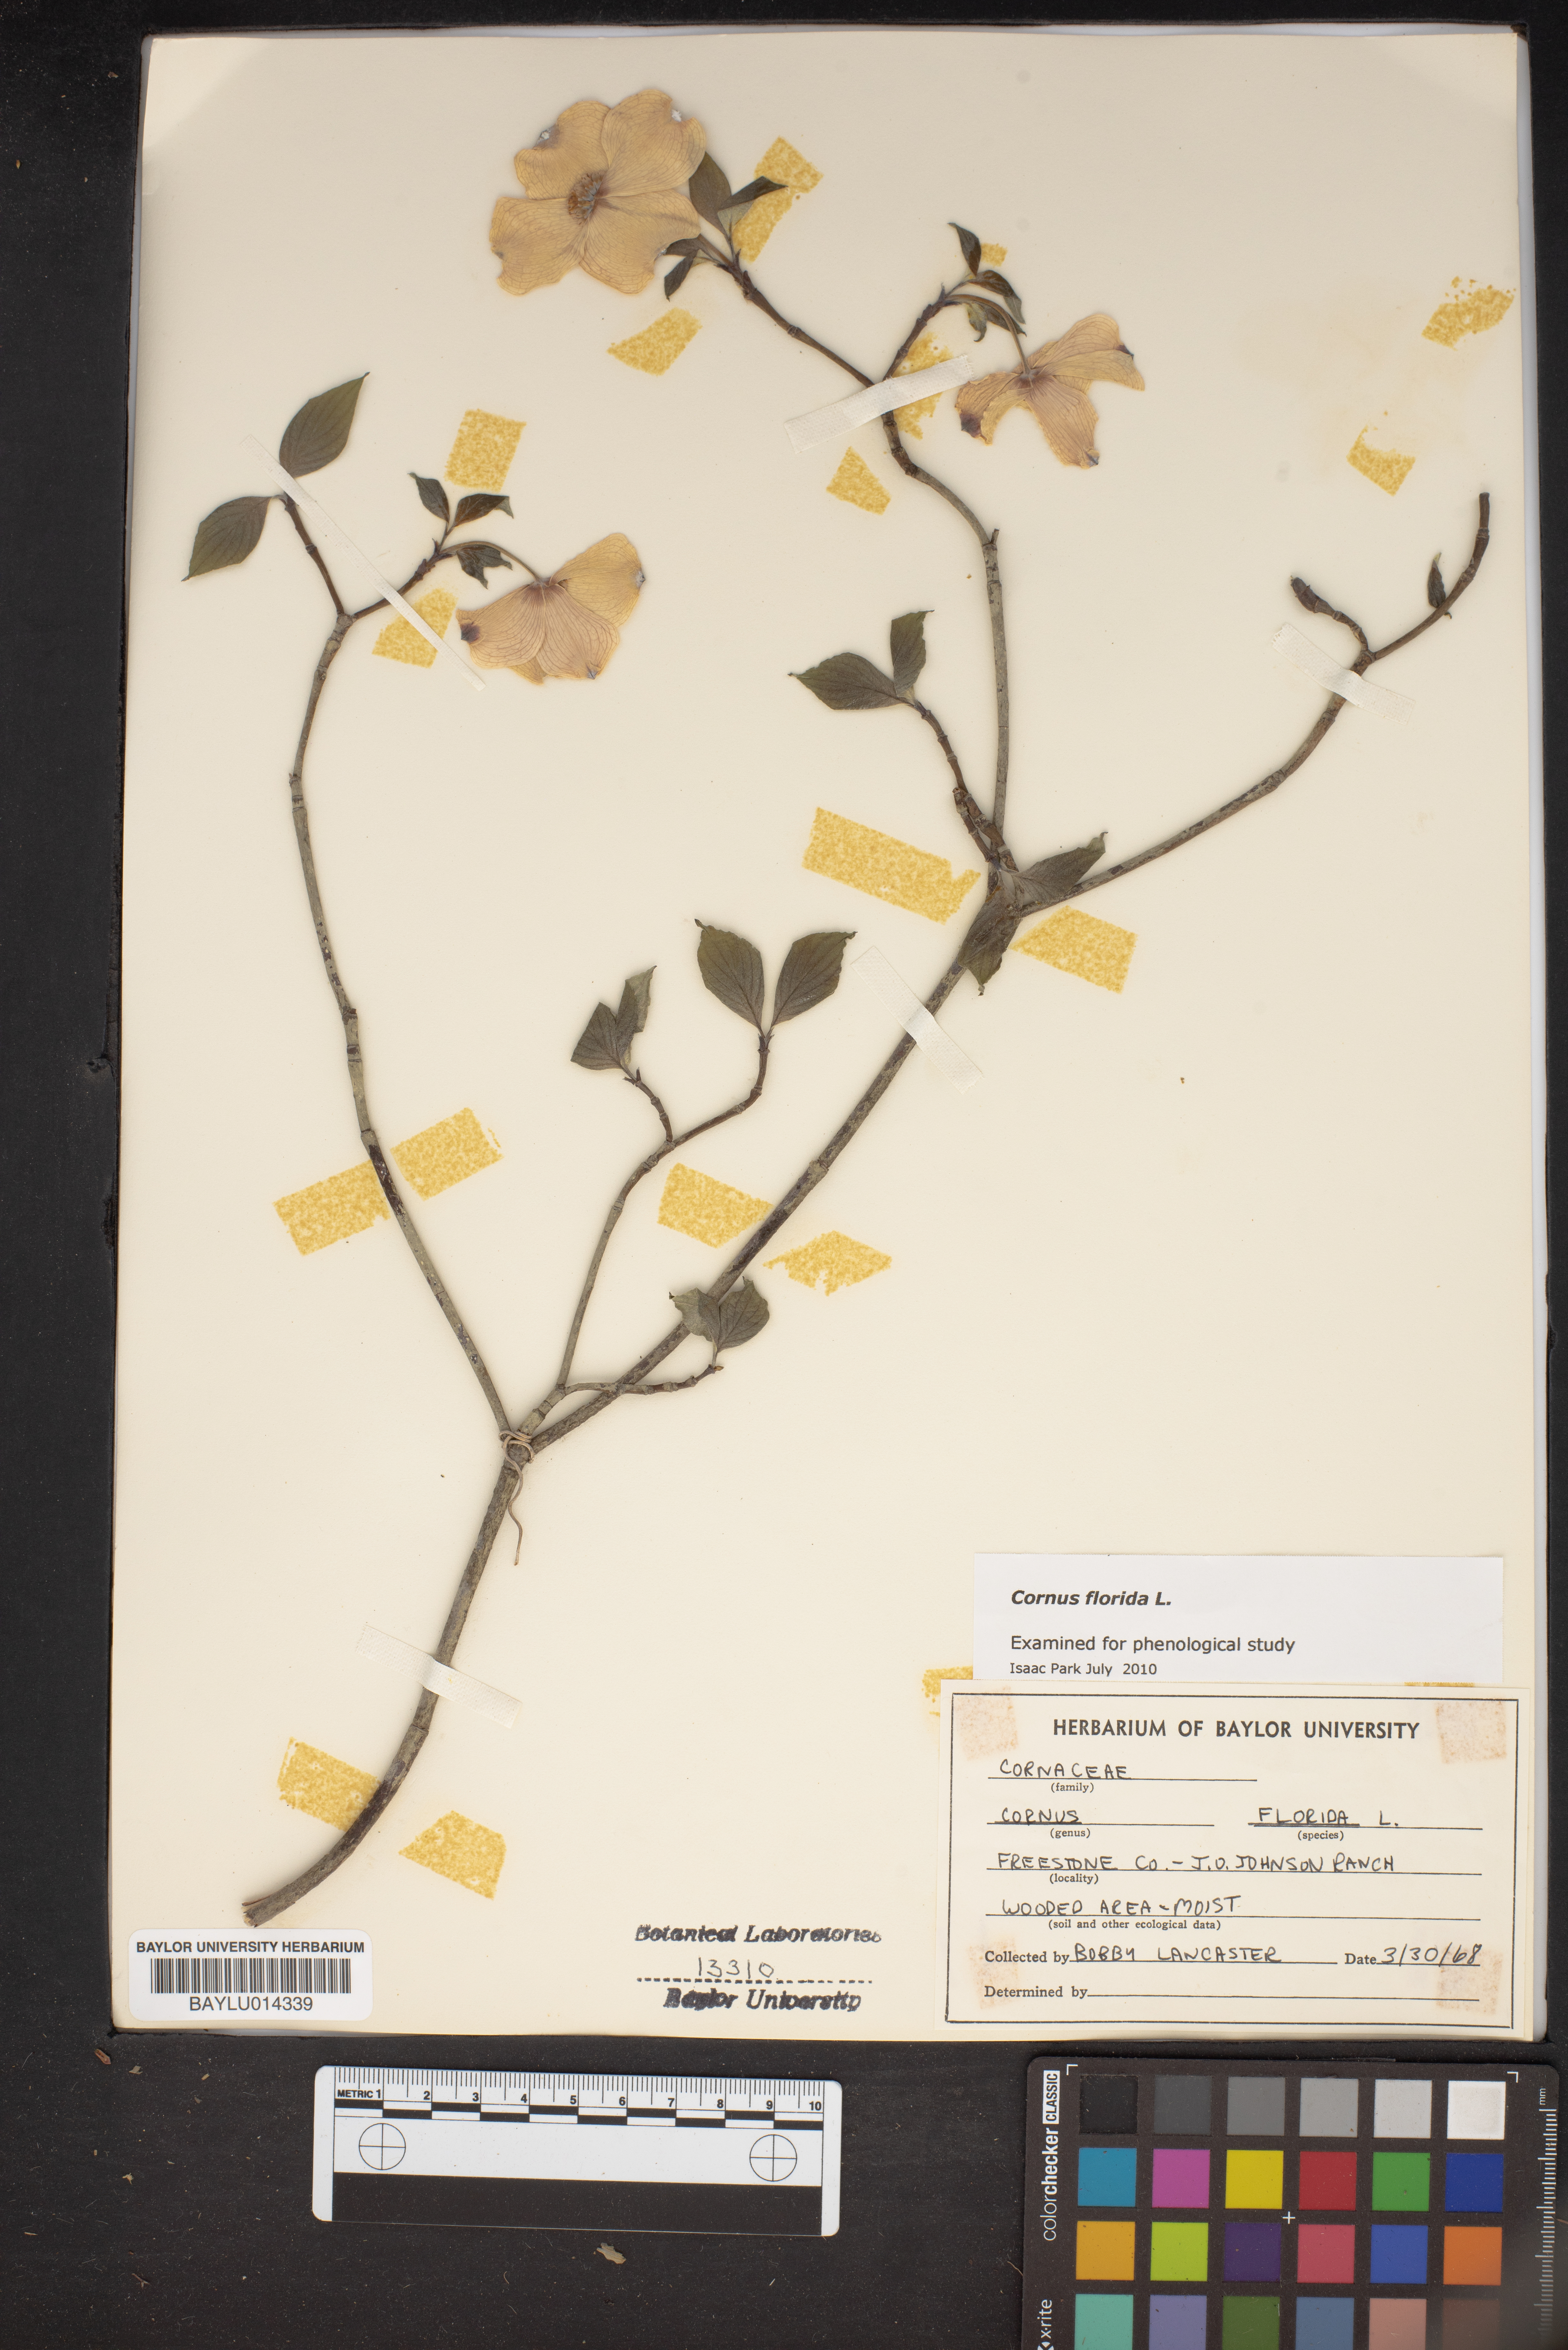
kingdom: Plantae
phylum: Tracheophyta
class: Magnoliopsida
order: Cornales
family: Cornaceae
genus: Cornus
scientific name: Cornus florida
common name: Flowering dogwood
